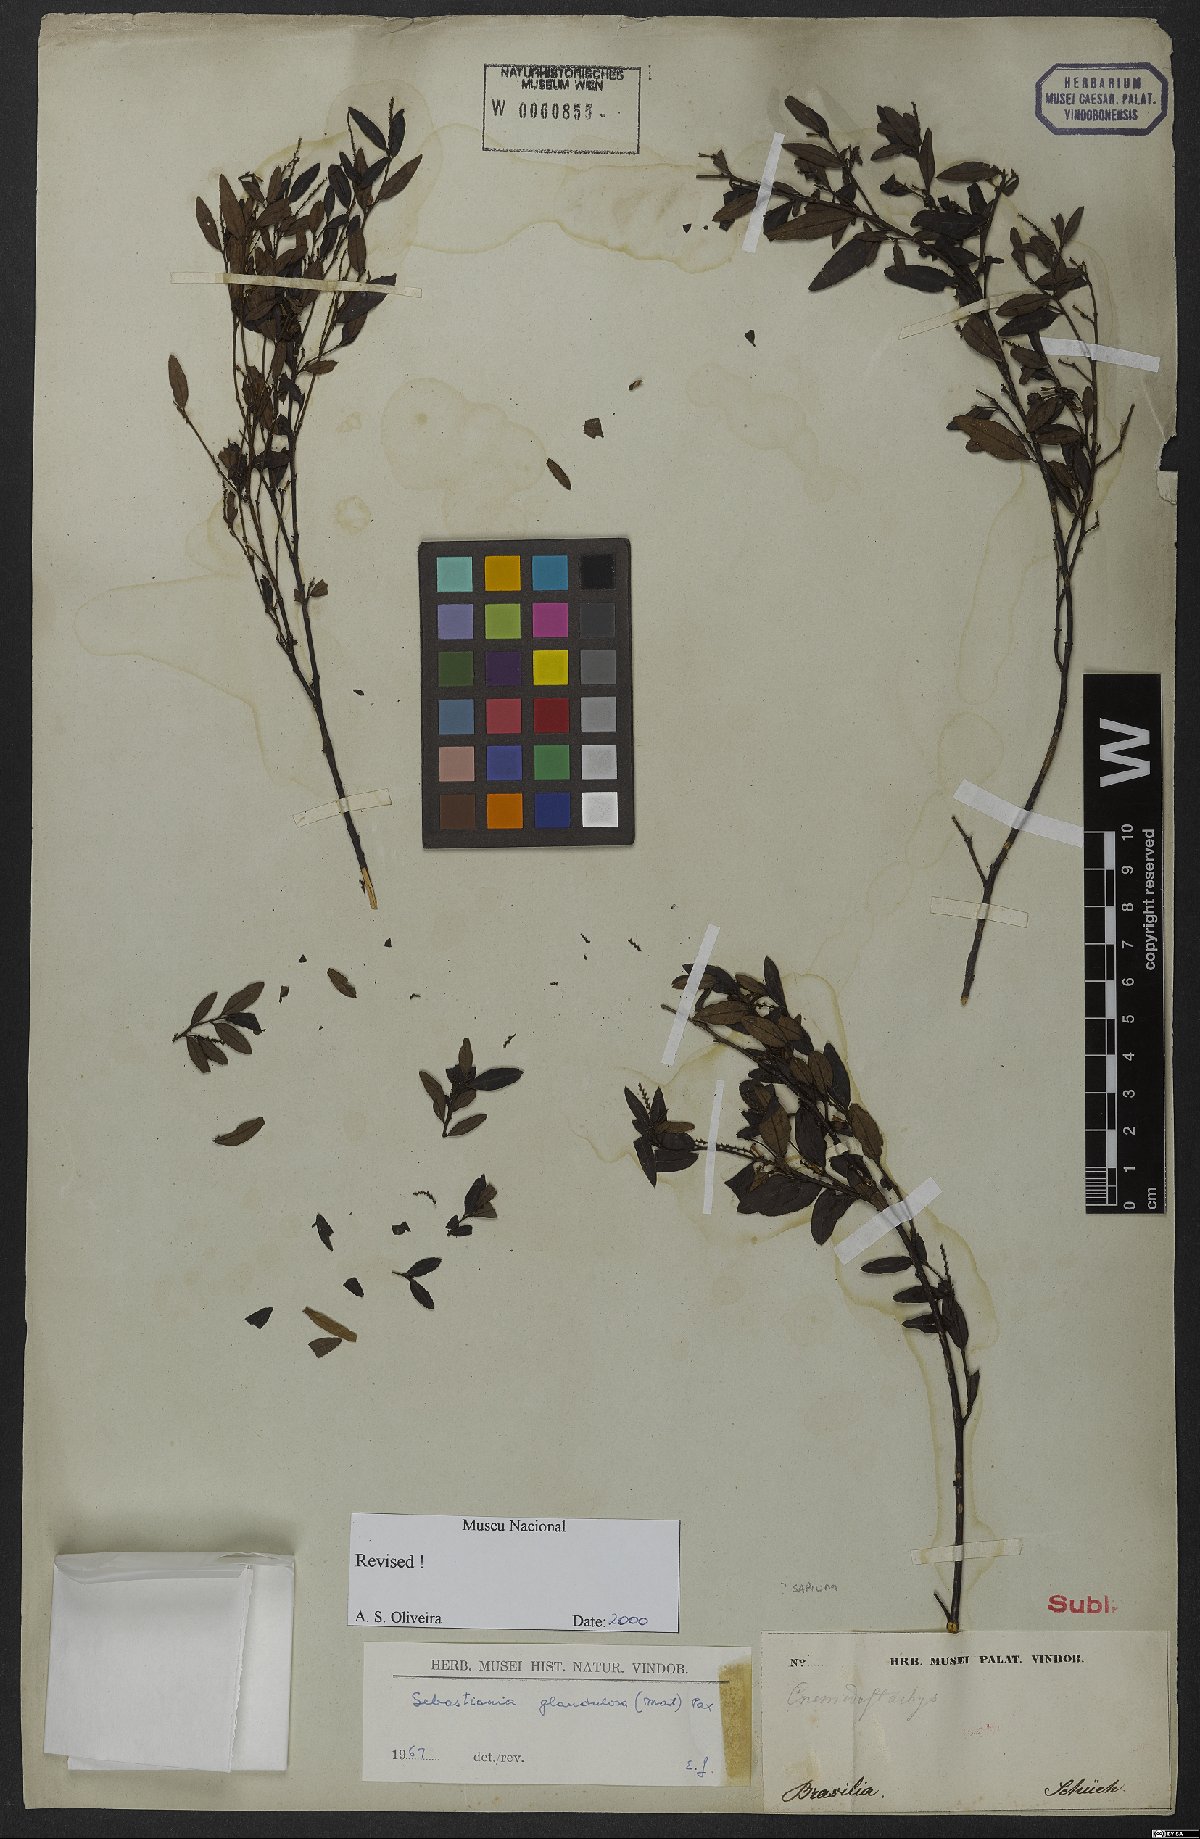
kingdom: Plantae
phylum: Tracheophyta
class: Magnoliopsida
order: Malpighiales
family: Euphorbiaceae
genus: Microstachys
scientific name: Microstachys corniculata
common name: Hato tejas
